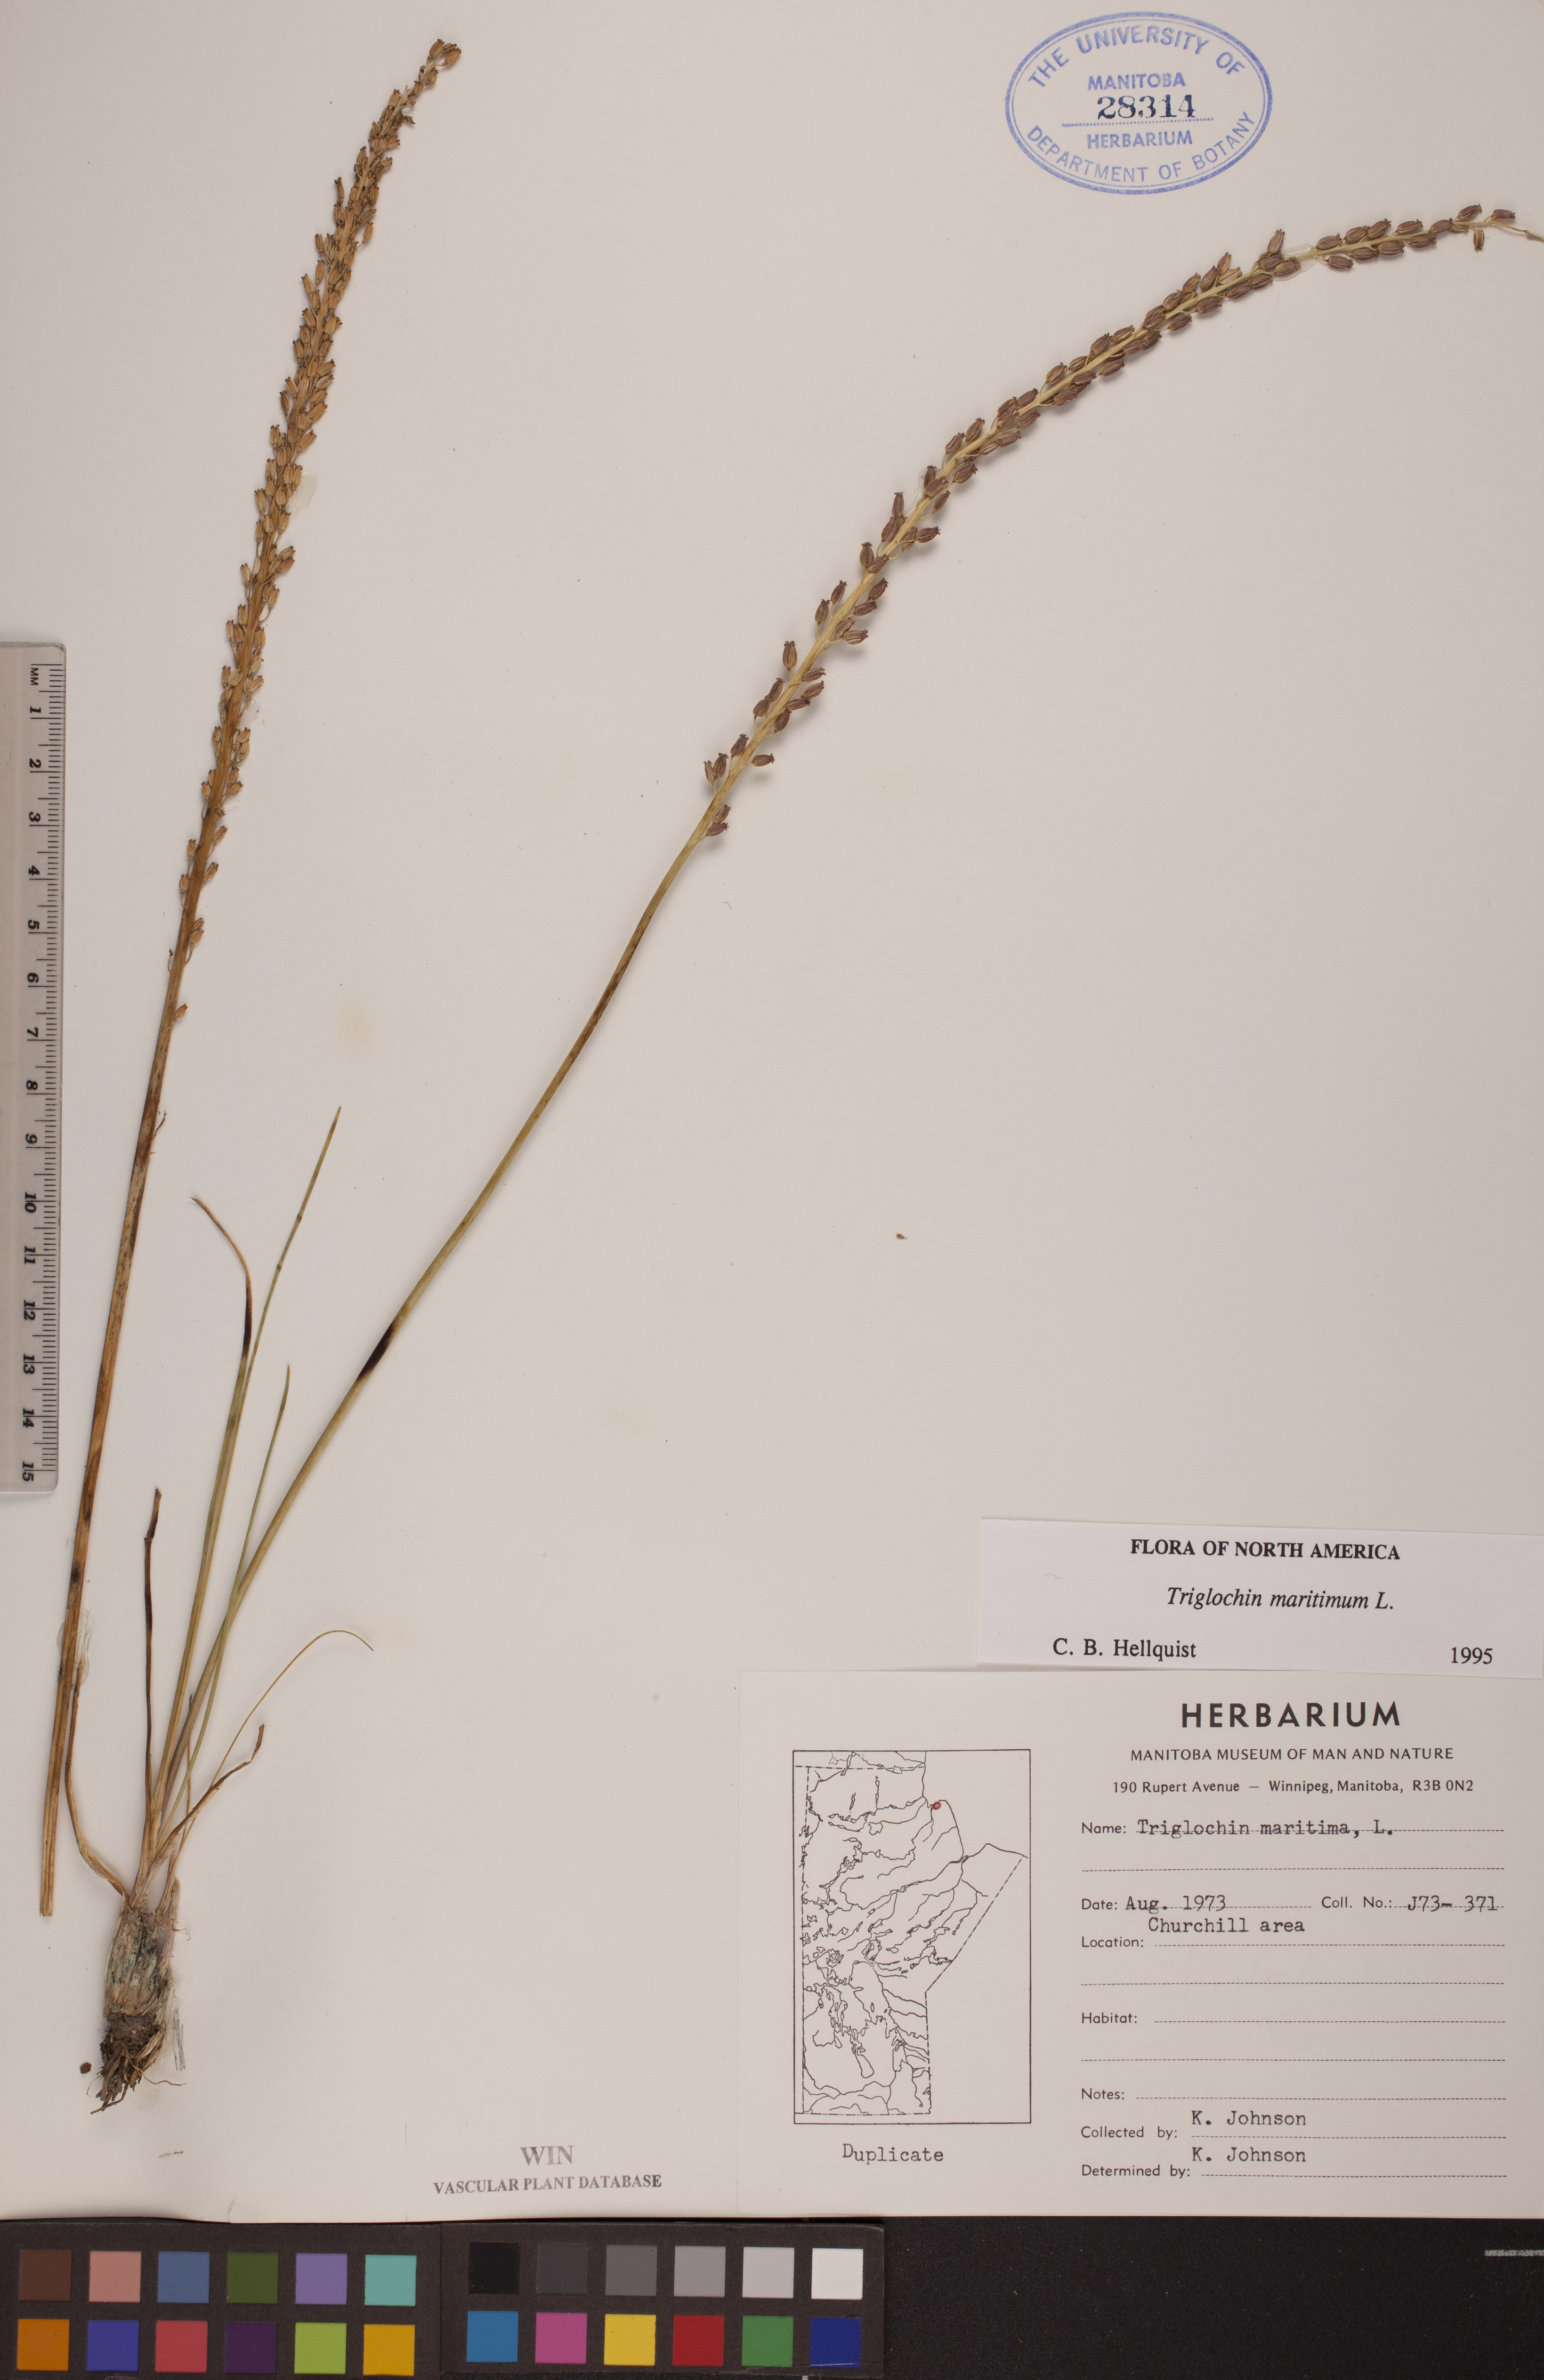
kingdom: Plantae
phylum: Tracheophyta
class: Liliopsida
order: Alismatales
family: Juncaginaceae
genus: Triglochin
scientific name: Triglochin maritima
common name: Sea arrowgrass
